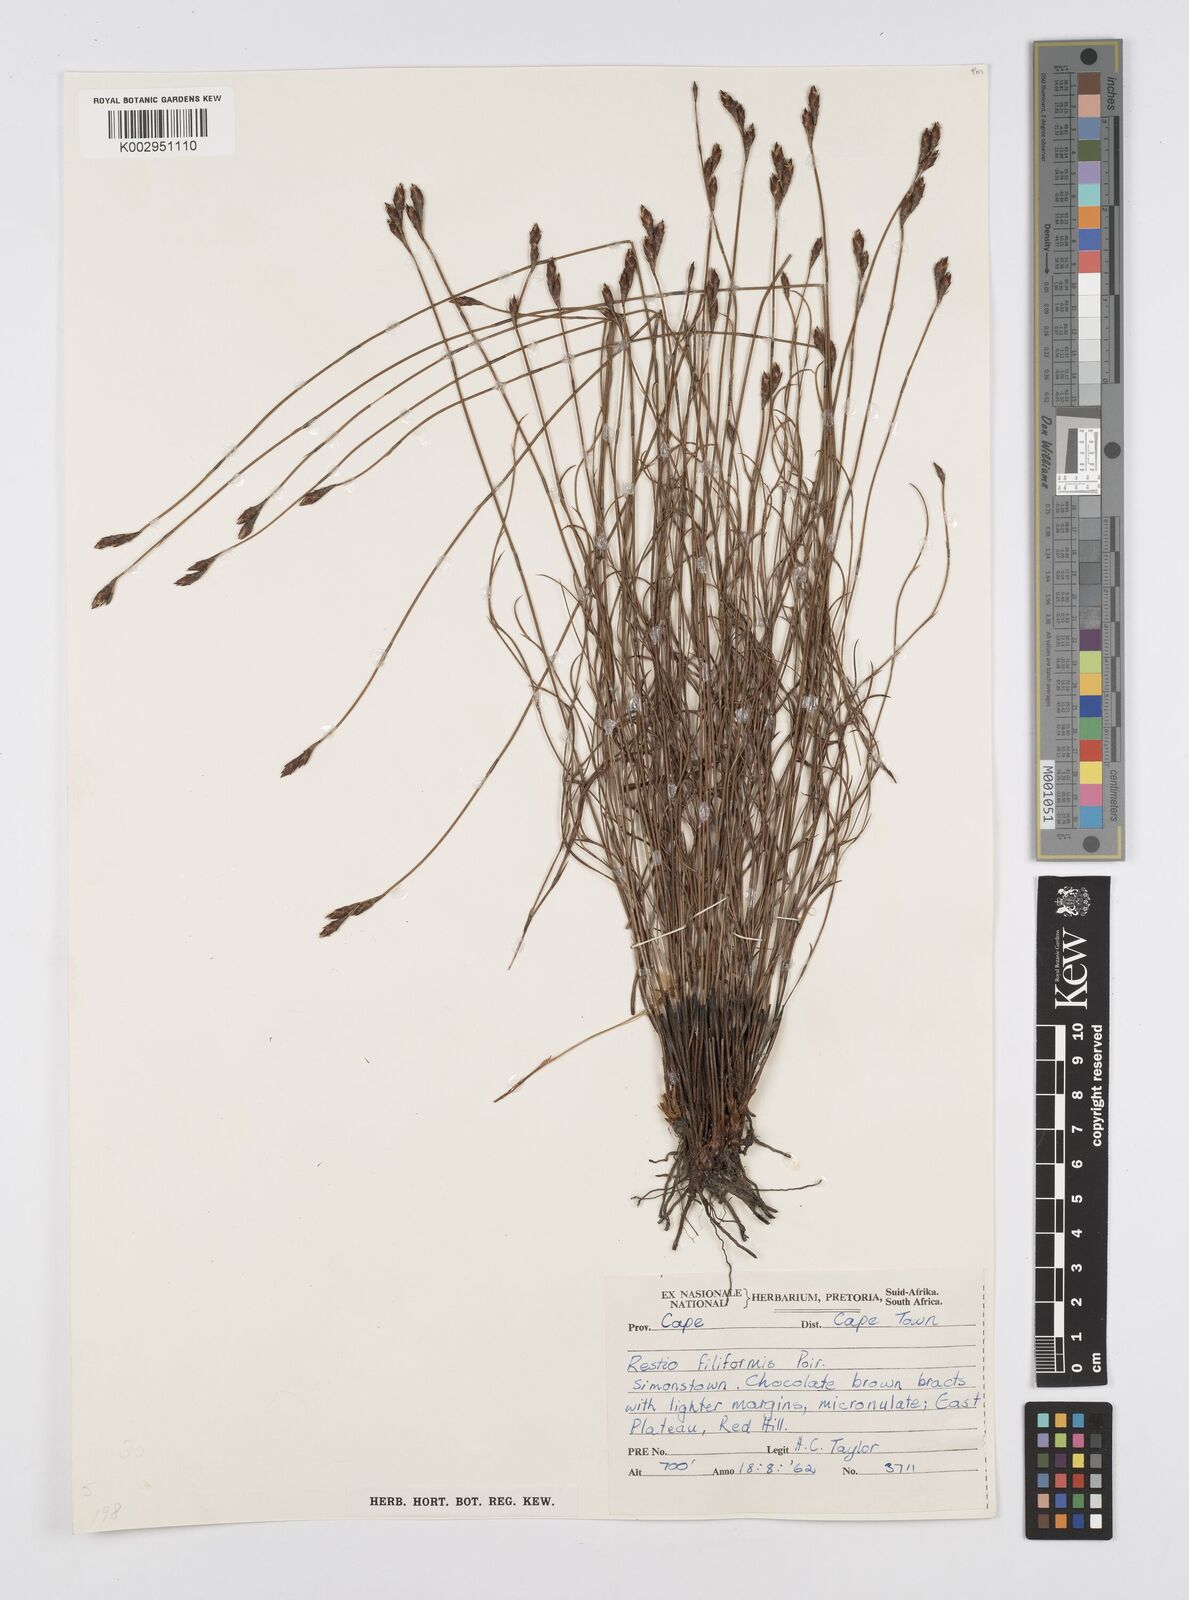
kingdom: Plantae
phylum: Tracheophyta
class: Liliopsida
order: Poales
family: Restionaceae
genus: Restio
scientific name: Restio filiformis
